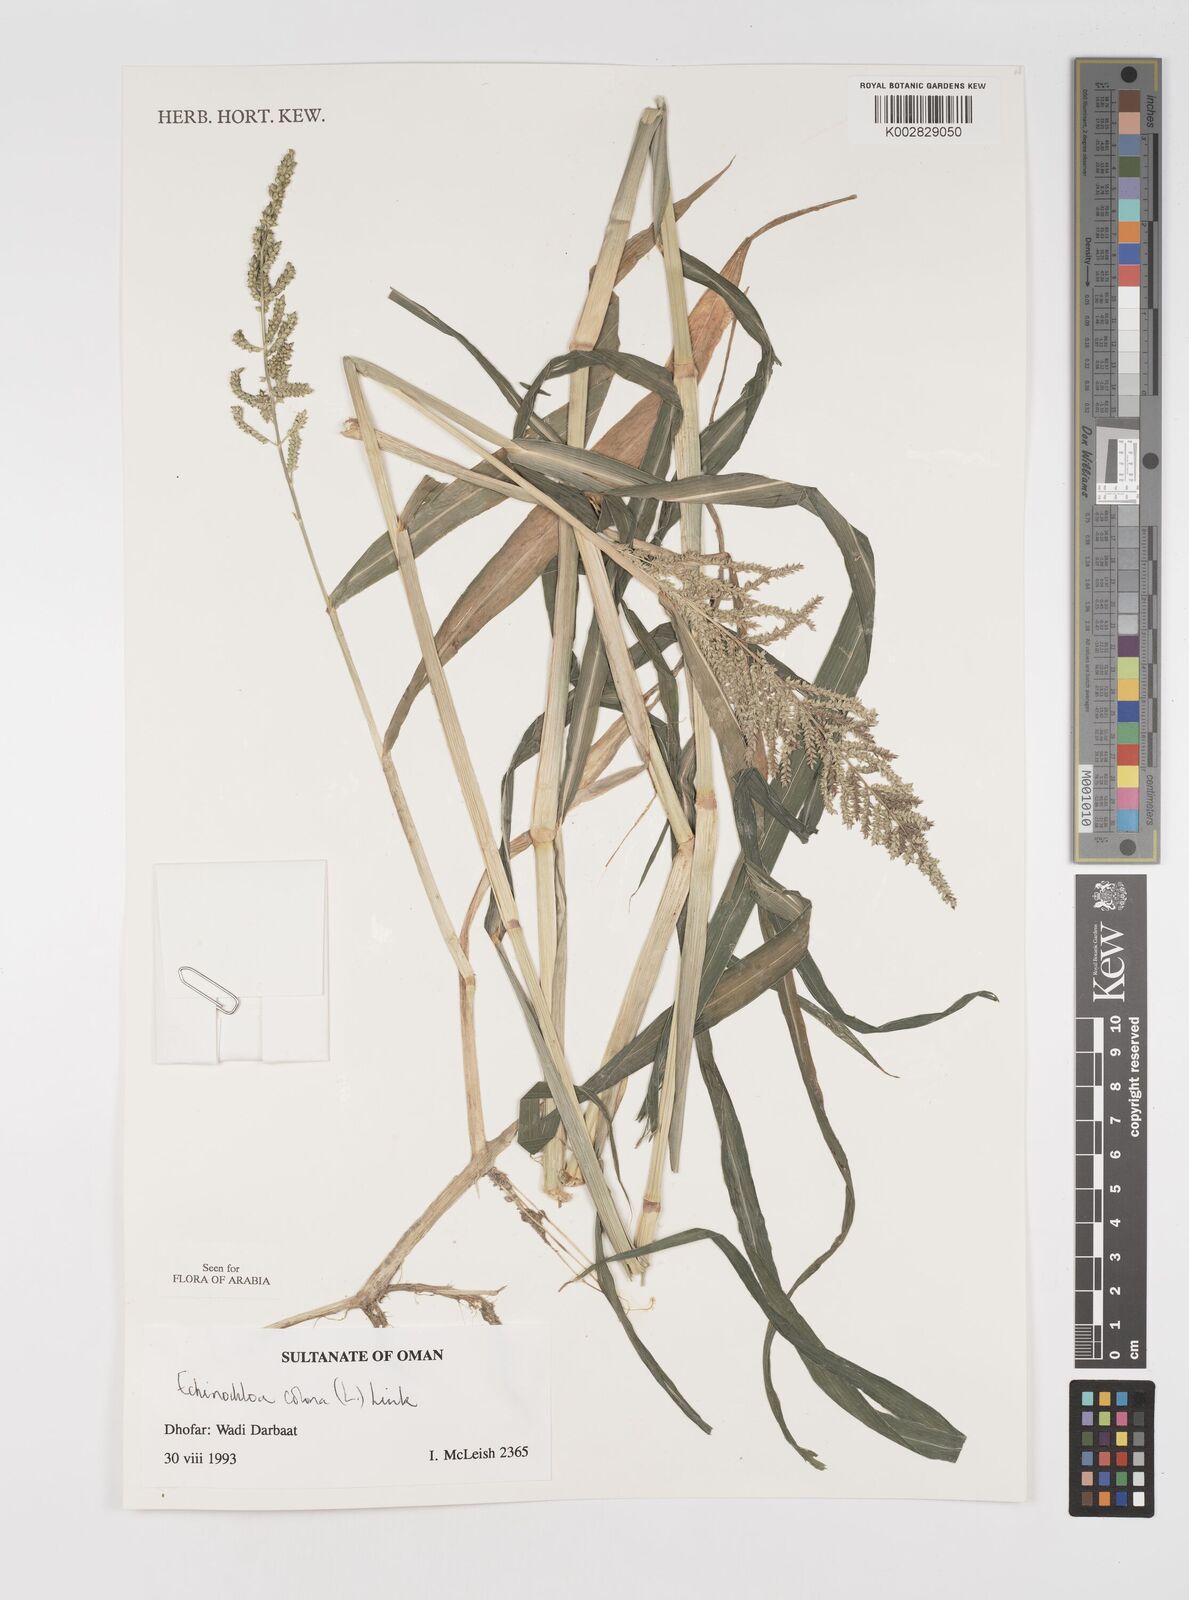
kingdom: Plantae
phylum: Tracheophyta
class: Liliopsida
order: Poales
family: Poaceae
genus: Echinochloa
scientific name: Echinochloa colonum
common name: Jungle rice
